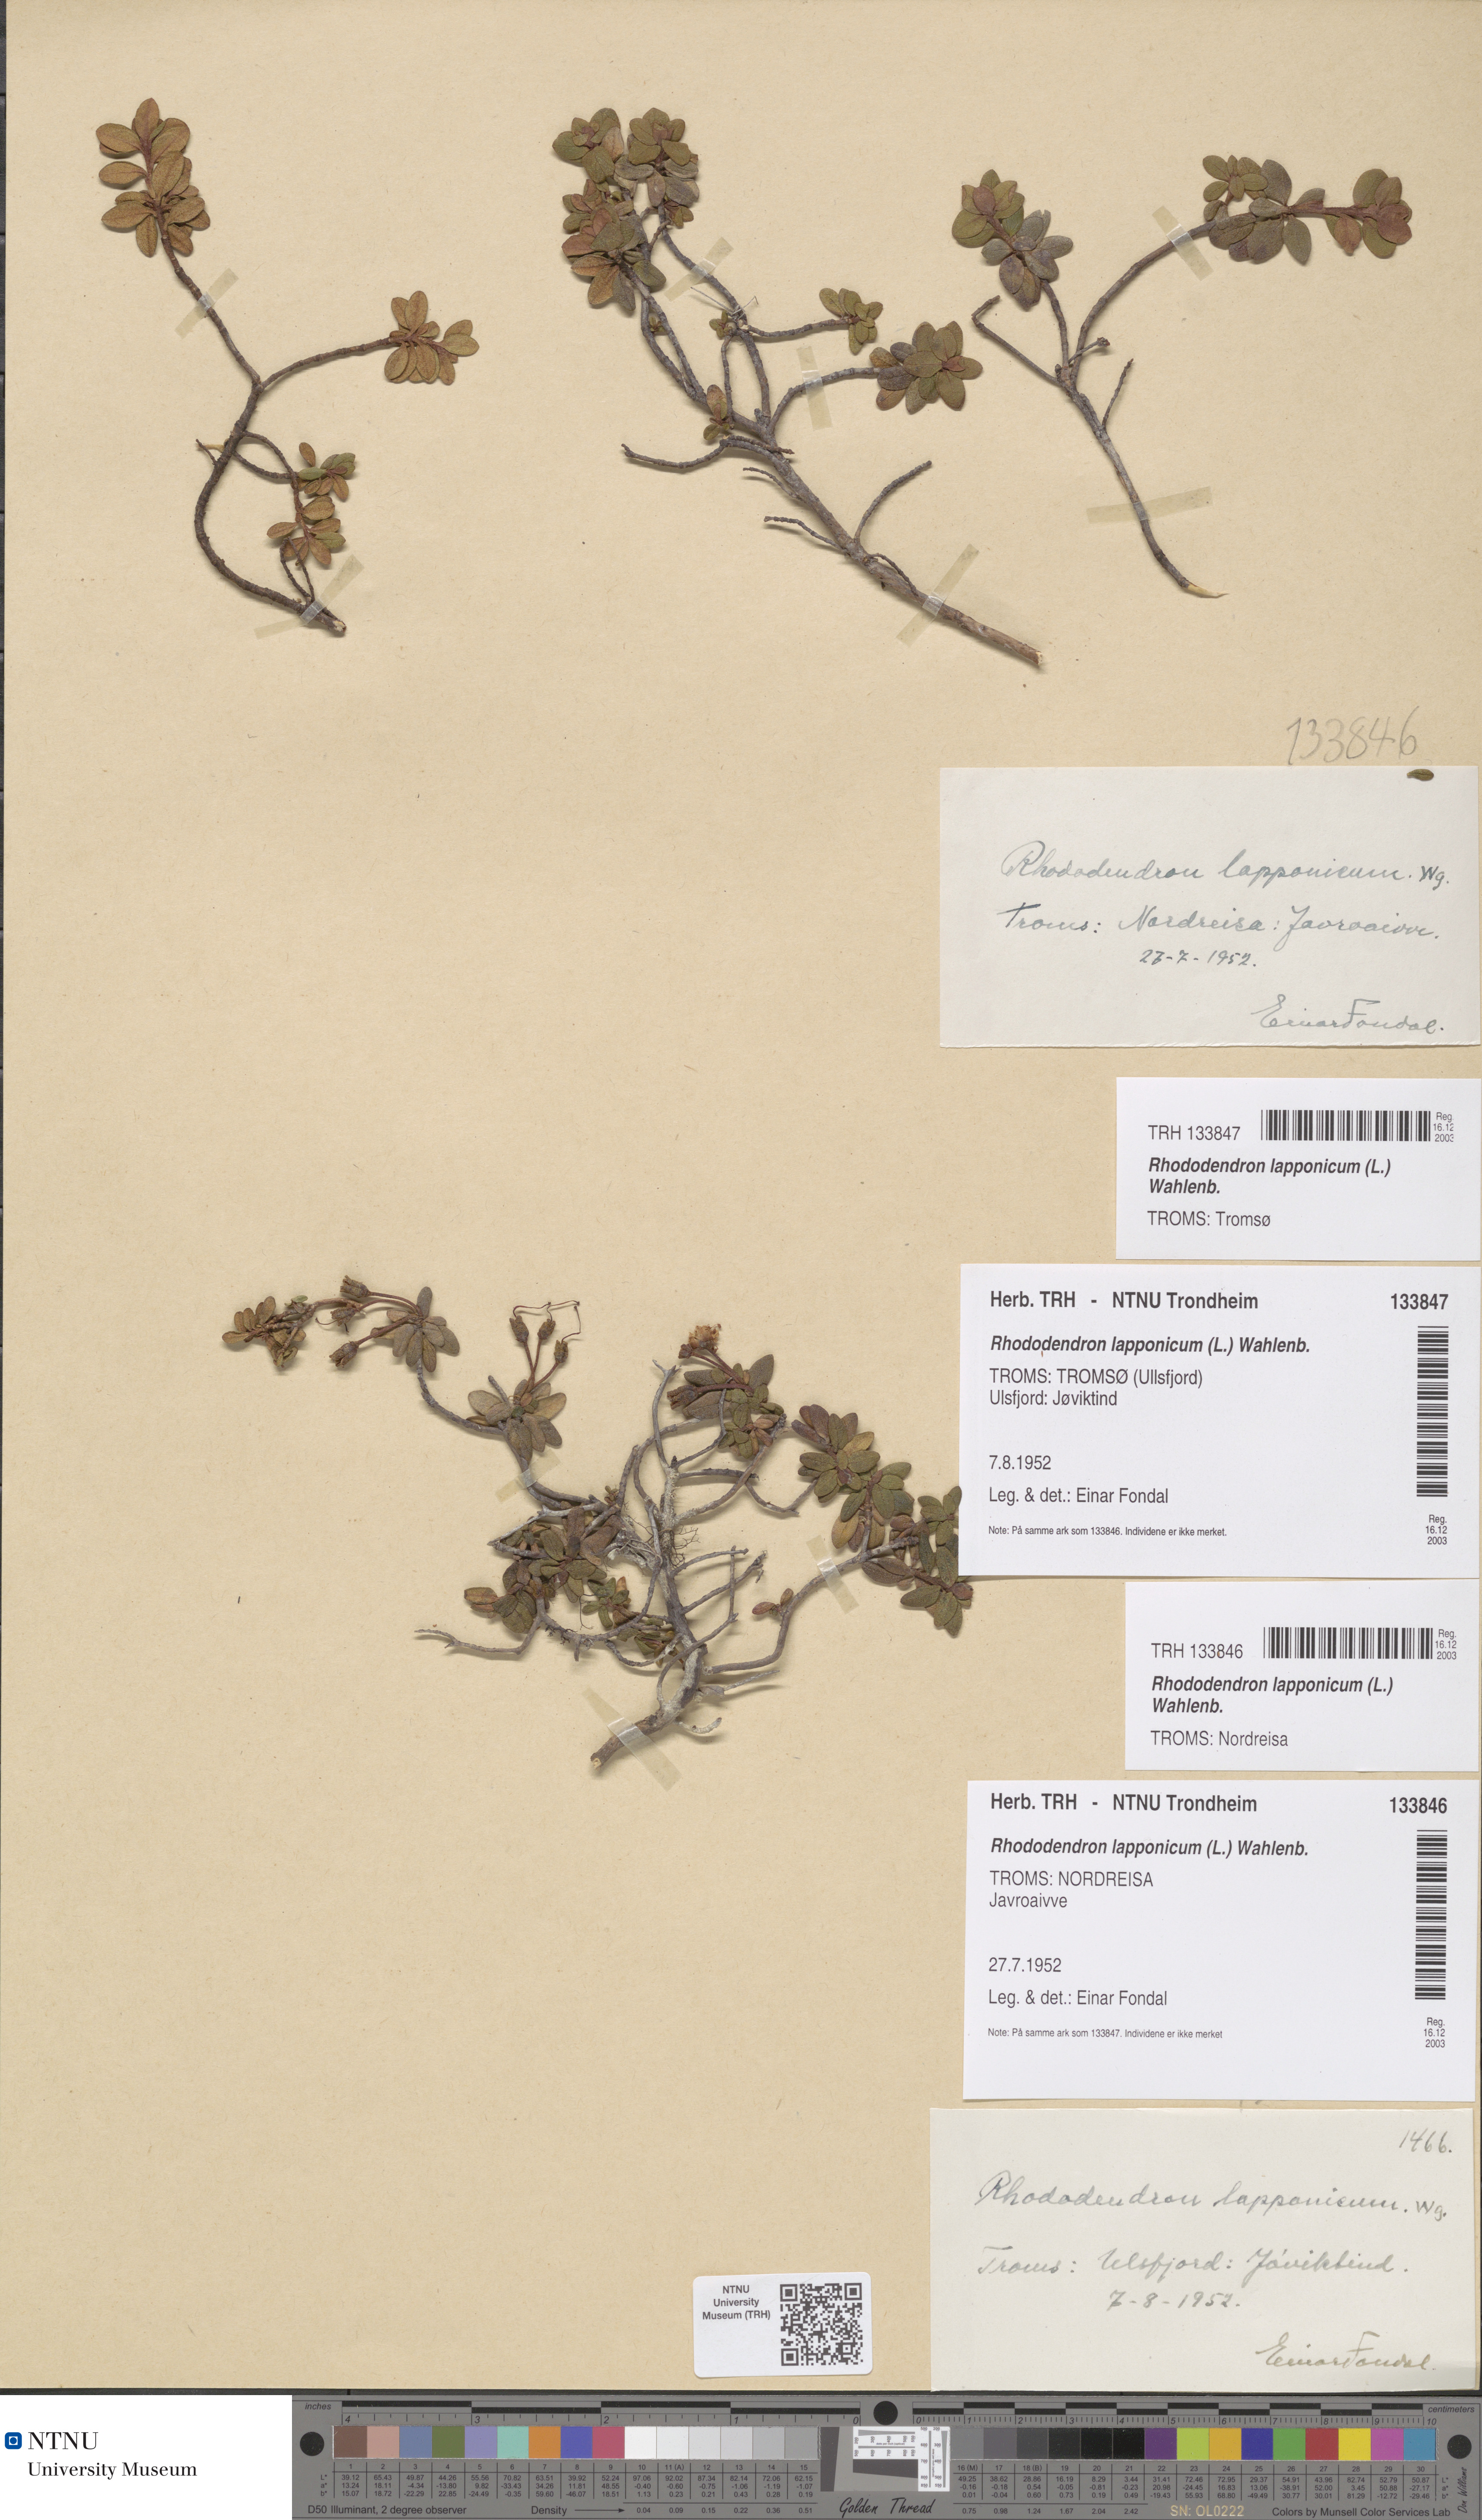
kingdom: Plantae
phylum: Tracheophyta
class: Magnoliopsida
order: Ericales
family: Ericaceae
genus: Rhododendron
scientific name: Rhododendron lapponicum
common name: Lapland rhododendron
